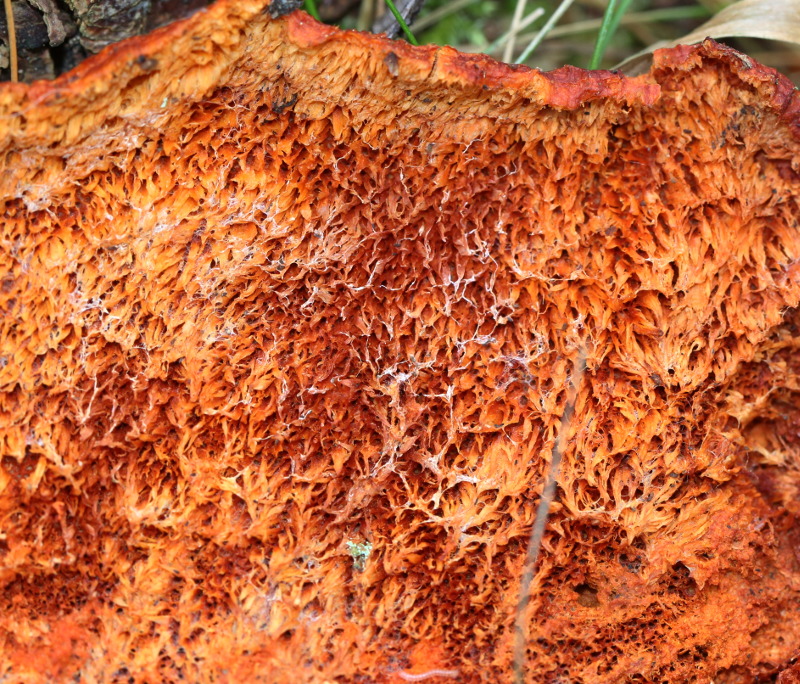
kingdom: Fungi
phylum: Basidiomycota
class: Agaricomycetes
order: Polyporales
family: Pycnoporellaceae
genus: Pycnoporellus
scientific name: Pycnoporellus fulgens
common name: flammeporesvamp
